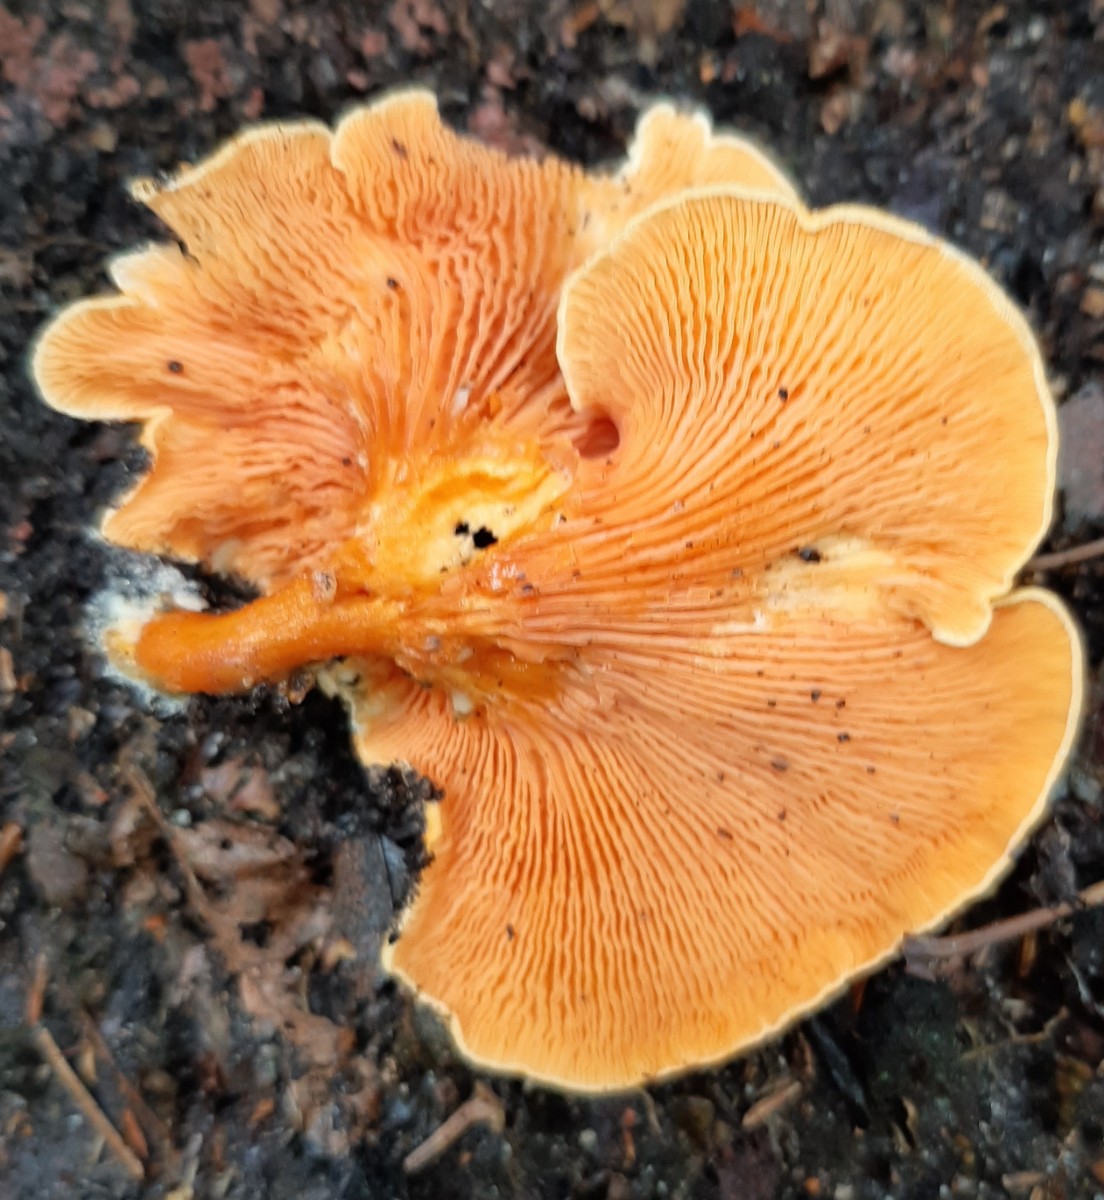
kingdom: Fungi
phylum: Basidiomycota
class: Agaricomycetes
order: Boletales
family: Hygrophoropsidaceae
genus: Hygrophoropsis
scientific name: Hygrophoropsis aurantiaca
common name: almindelig orangekantarel
